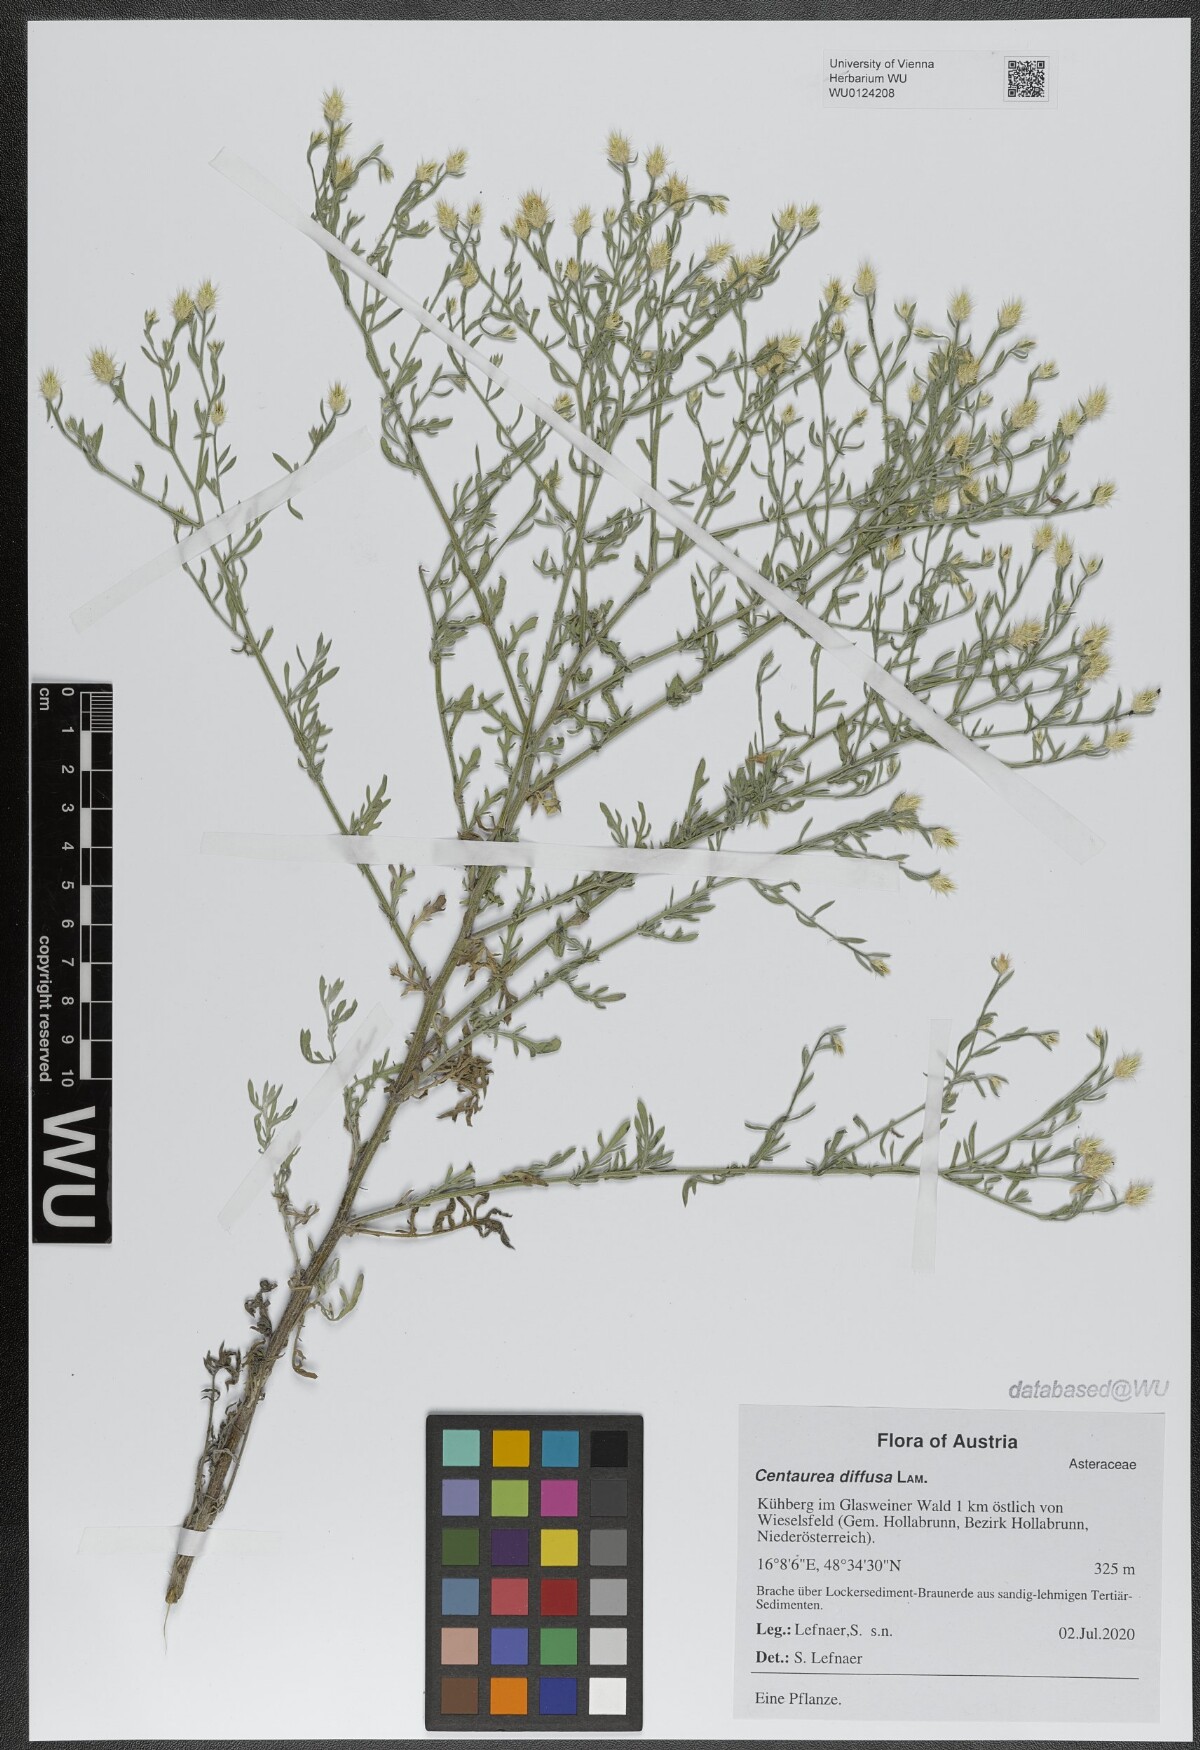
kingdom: Plantae
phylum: Tracheophyta
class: Magnoliopsida
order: Asterales
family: Asteraceae
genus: Centaurea
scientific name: Centaurea diffusa
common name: Diffuse knapweed
